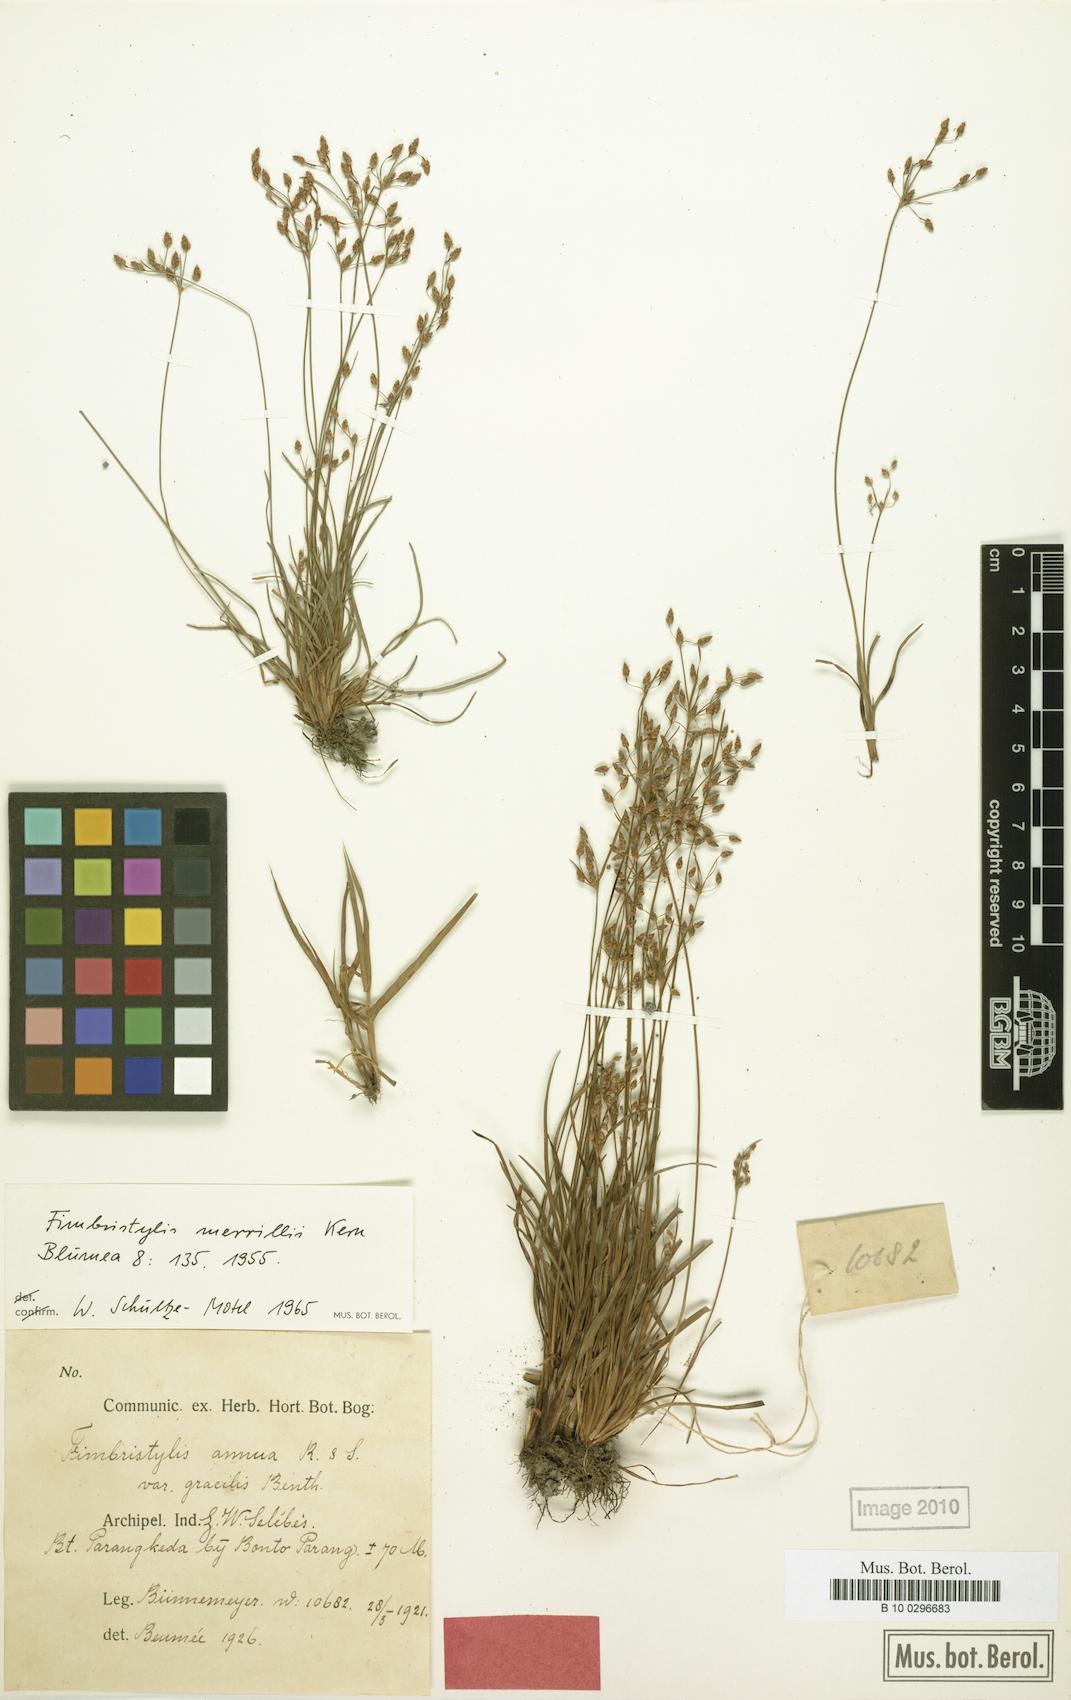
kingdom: Plantae
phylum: Tracheophyta
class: Liliopsida
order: Poales
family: Cyperaceae
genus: Fimbristylis
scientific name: Fimbristylis merrillii
